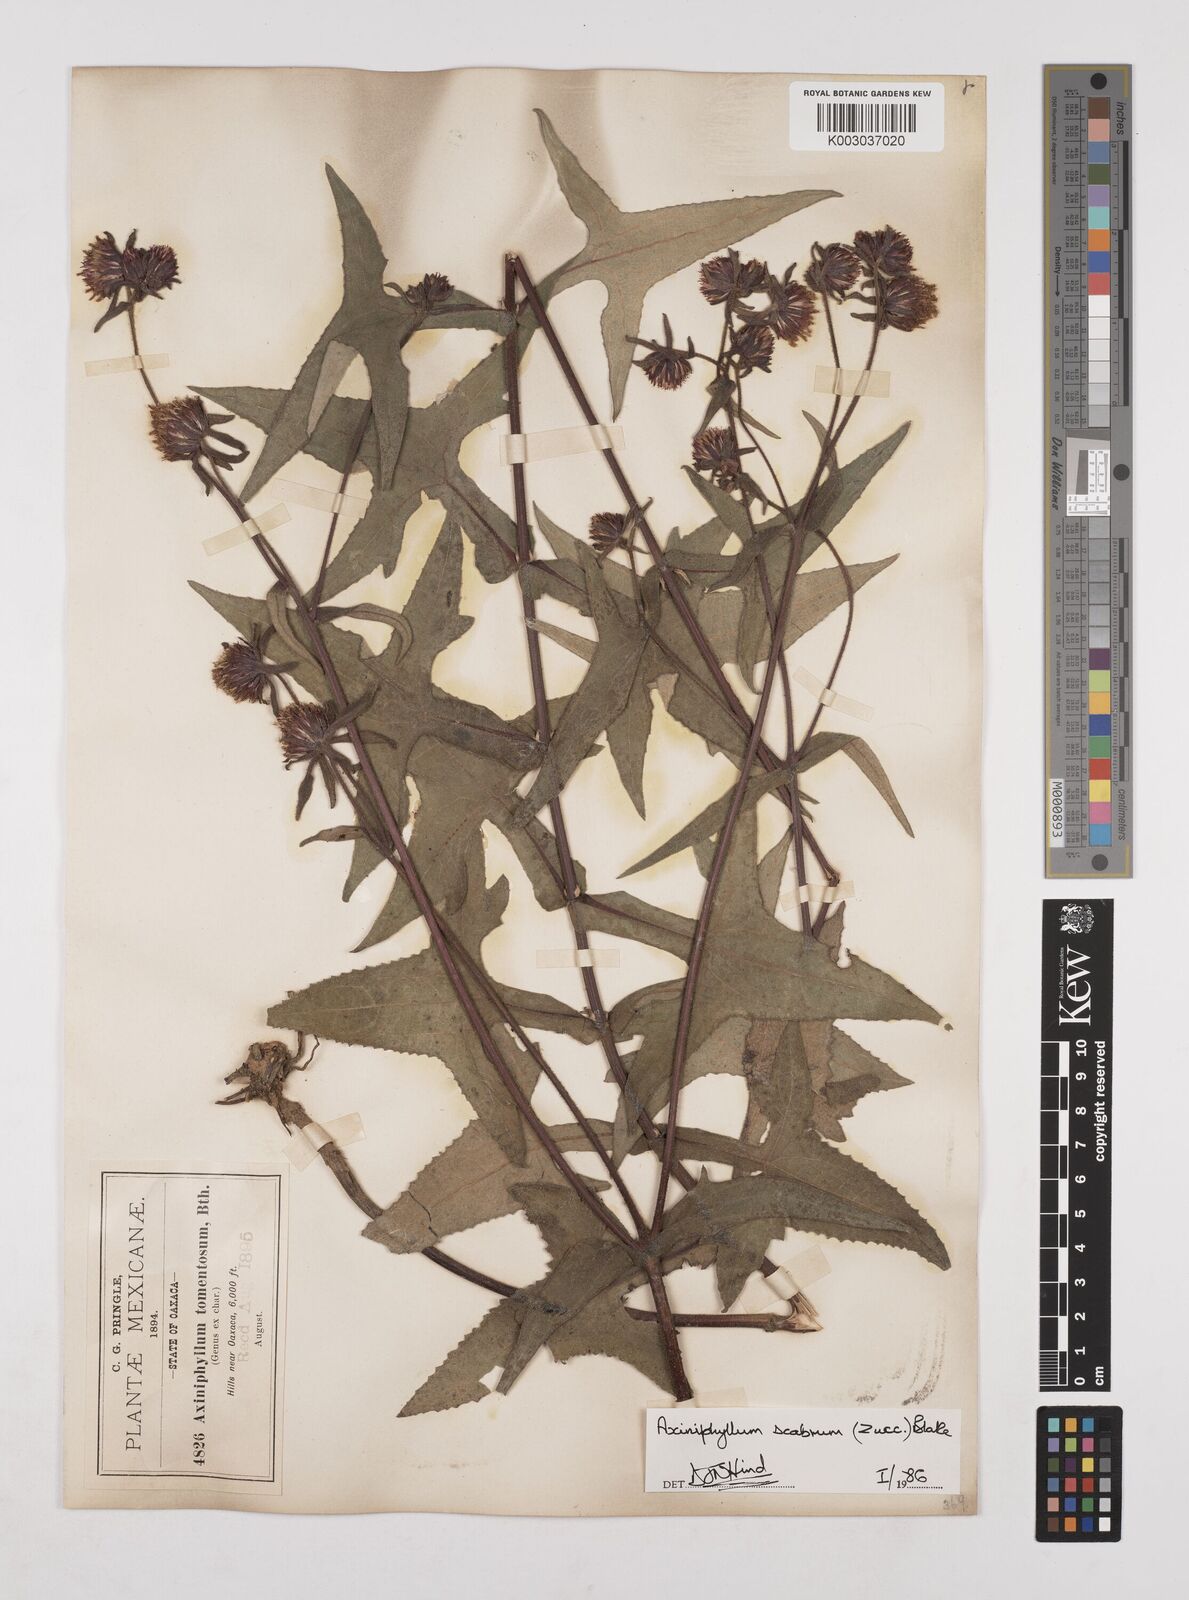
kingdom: Plantae
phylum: Tracheophyta
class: Magnoliopsida
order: Asterales
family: Asteraceae
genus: Axiniphyllum
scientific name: Axiniphyllum scabrum
